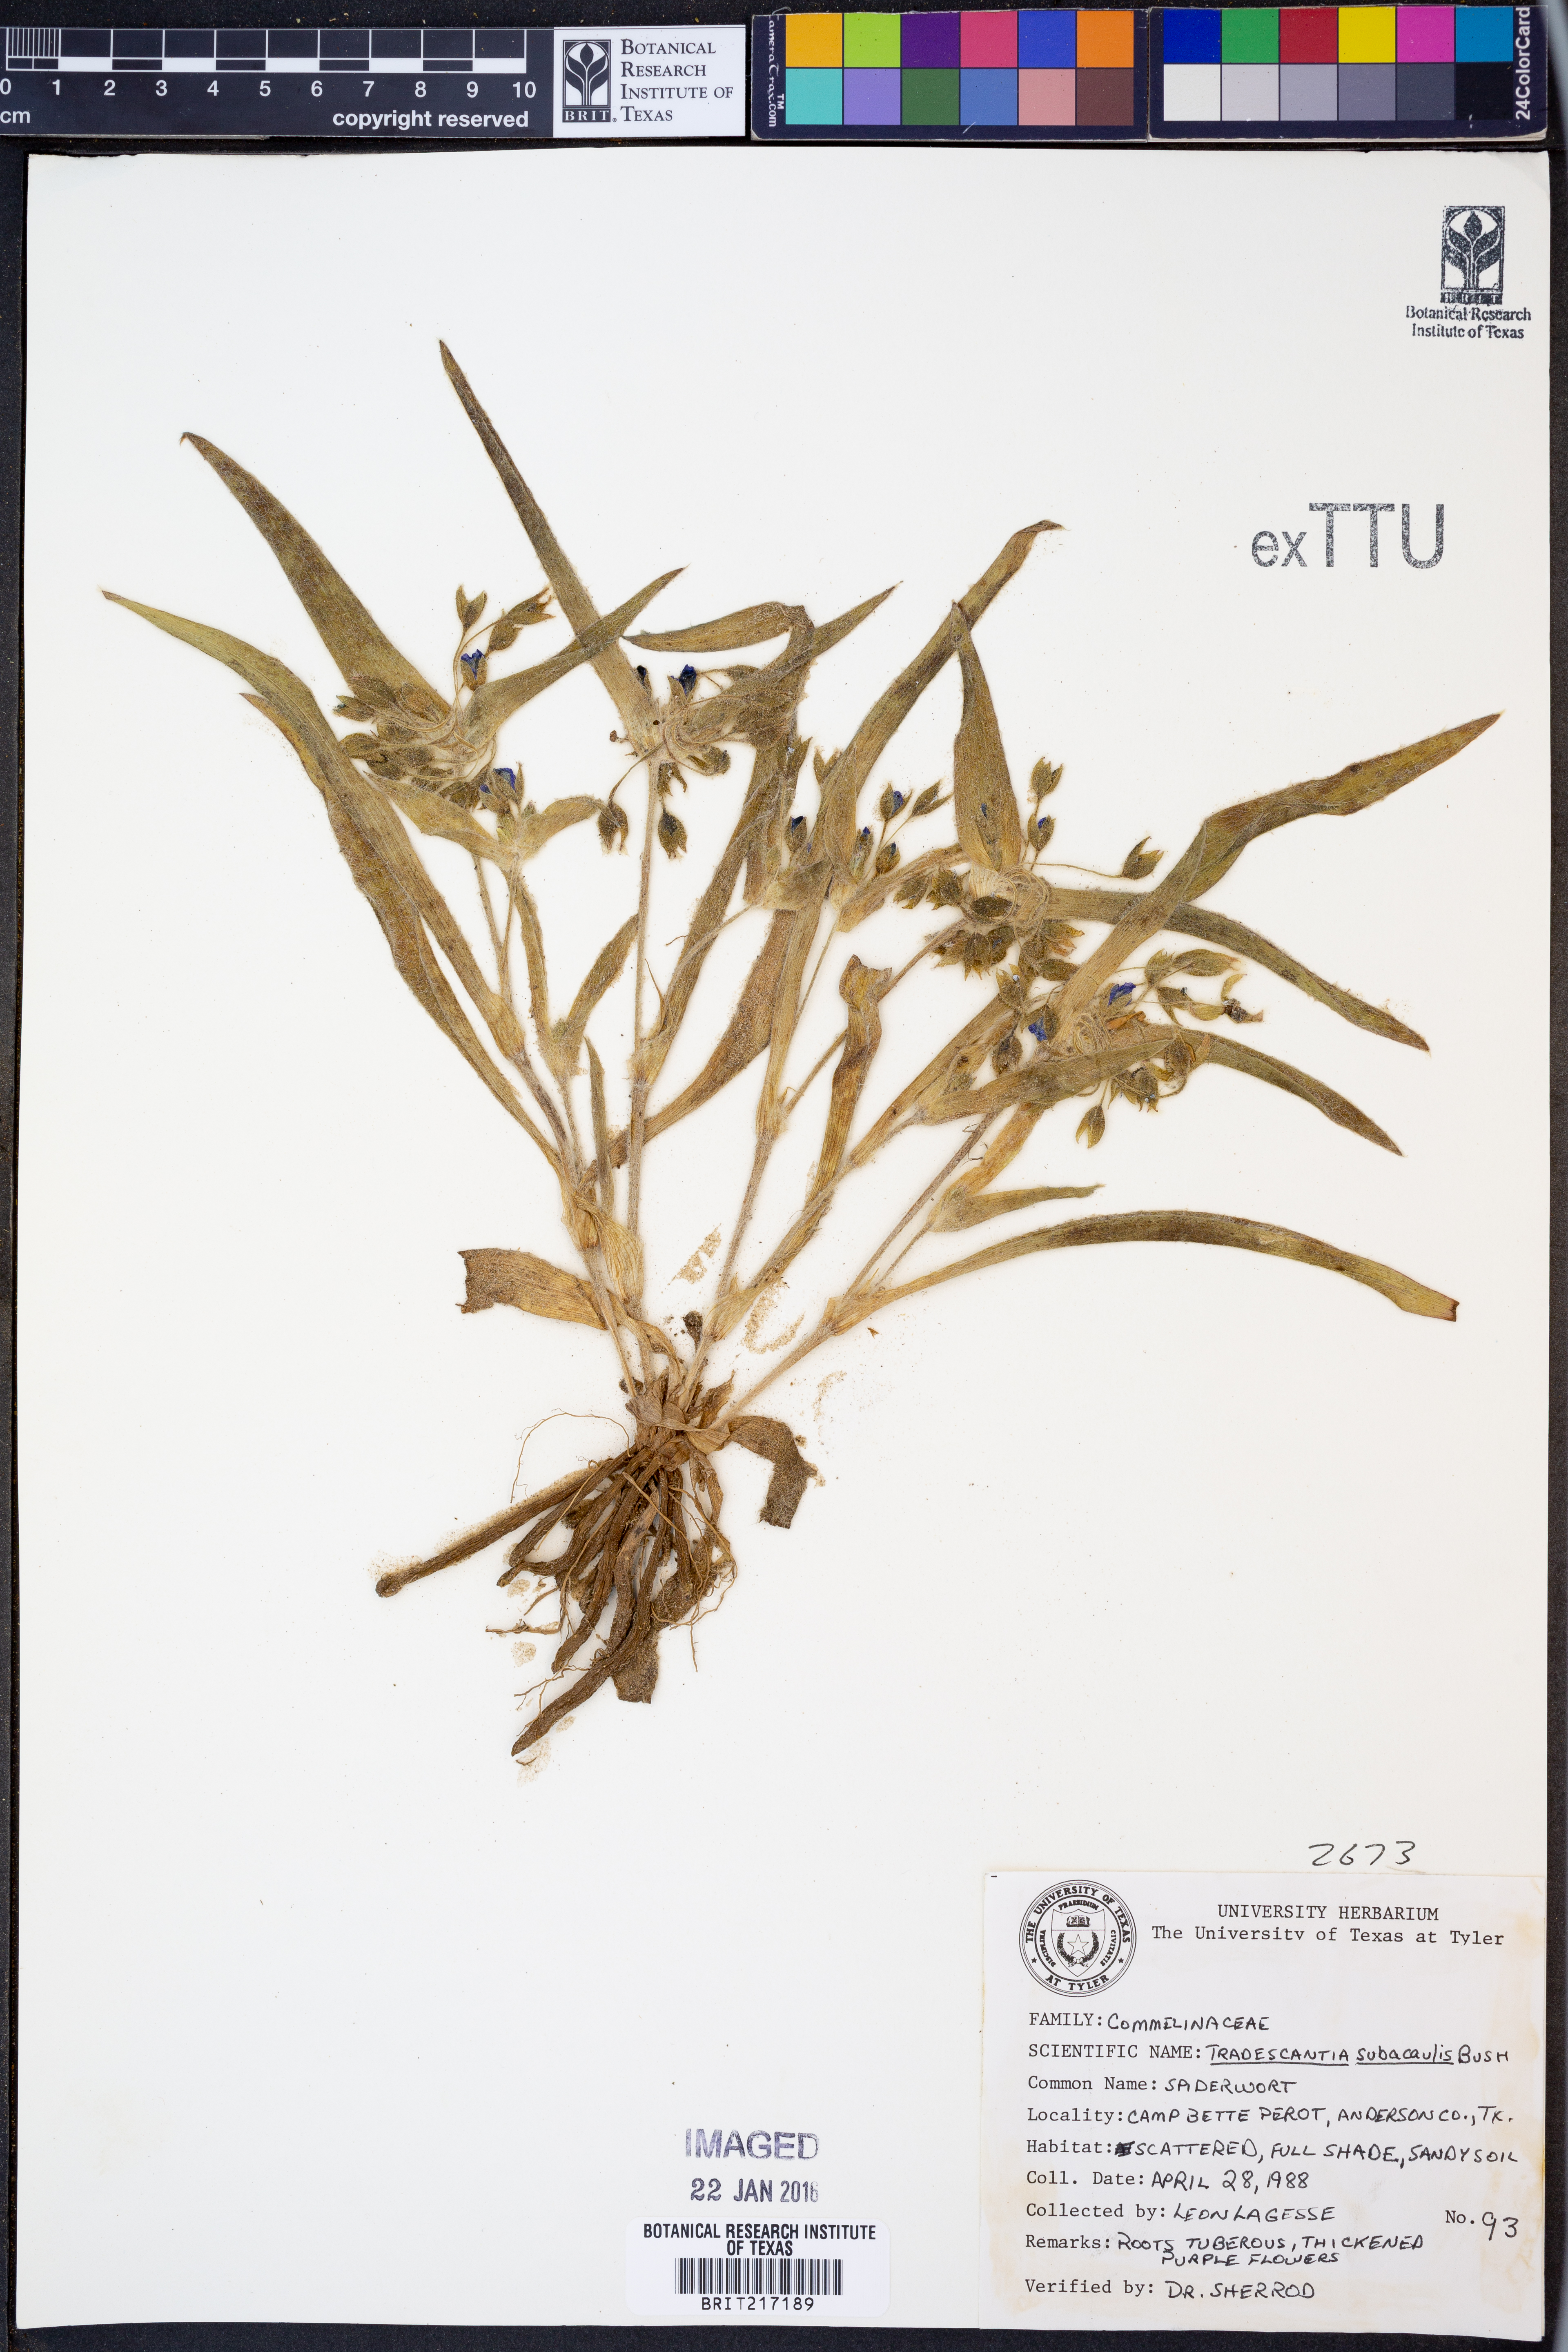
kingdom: Plantae
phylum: Tracheophyta
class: Liliopsida
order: Commelinales
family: Commelinaceae
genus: Tradescantia
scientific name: Tradescantia subacaulis
